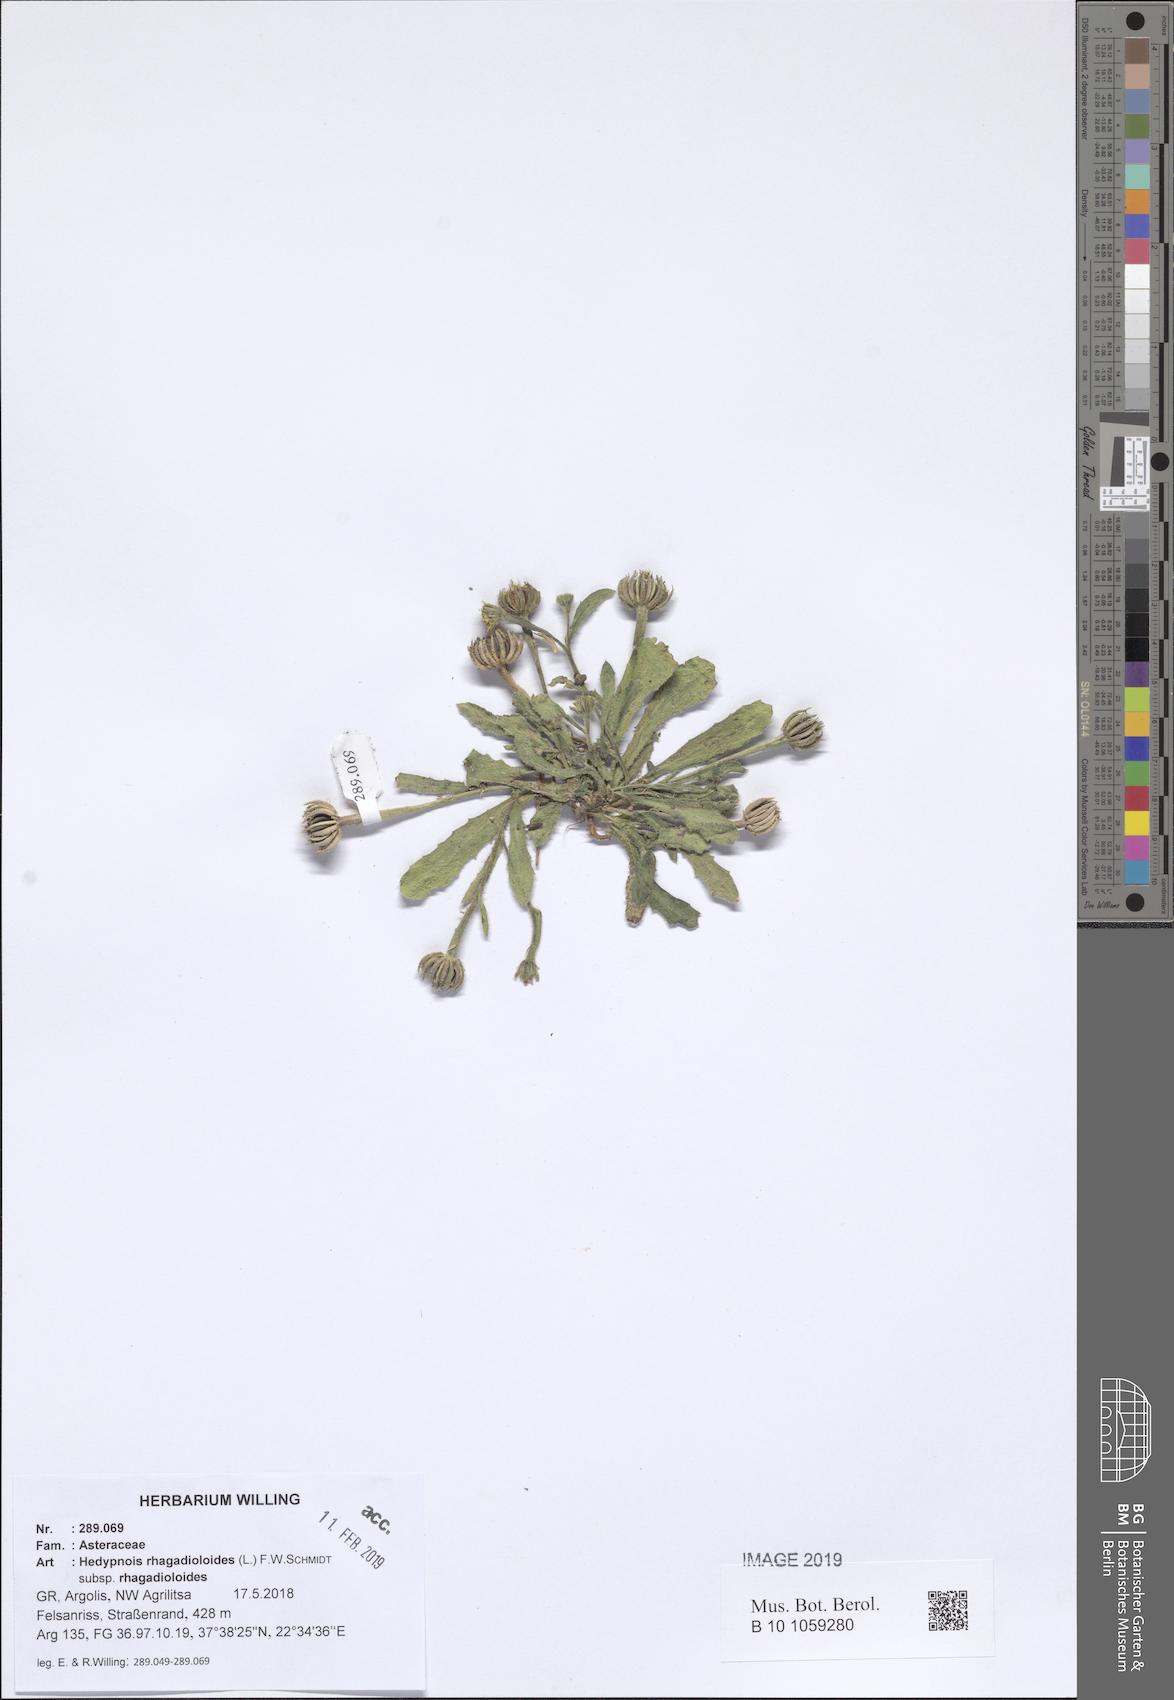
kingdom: Plantae
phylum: Tracheophyta
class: Magnoliopsida
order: Asterales
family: Asteraceae
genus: Hedypnois
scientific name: Hedypnois rhagadioloides
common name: Cretan weed
